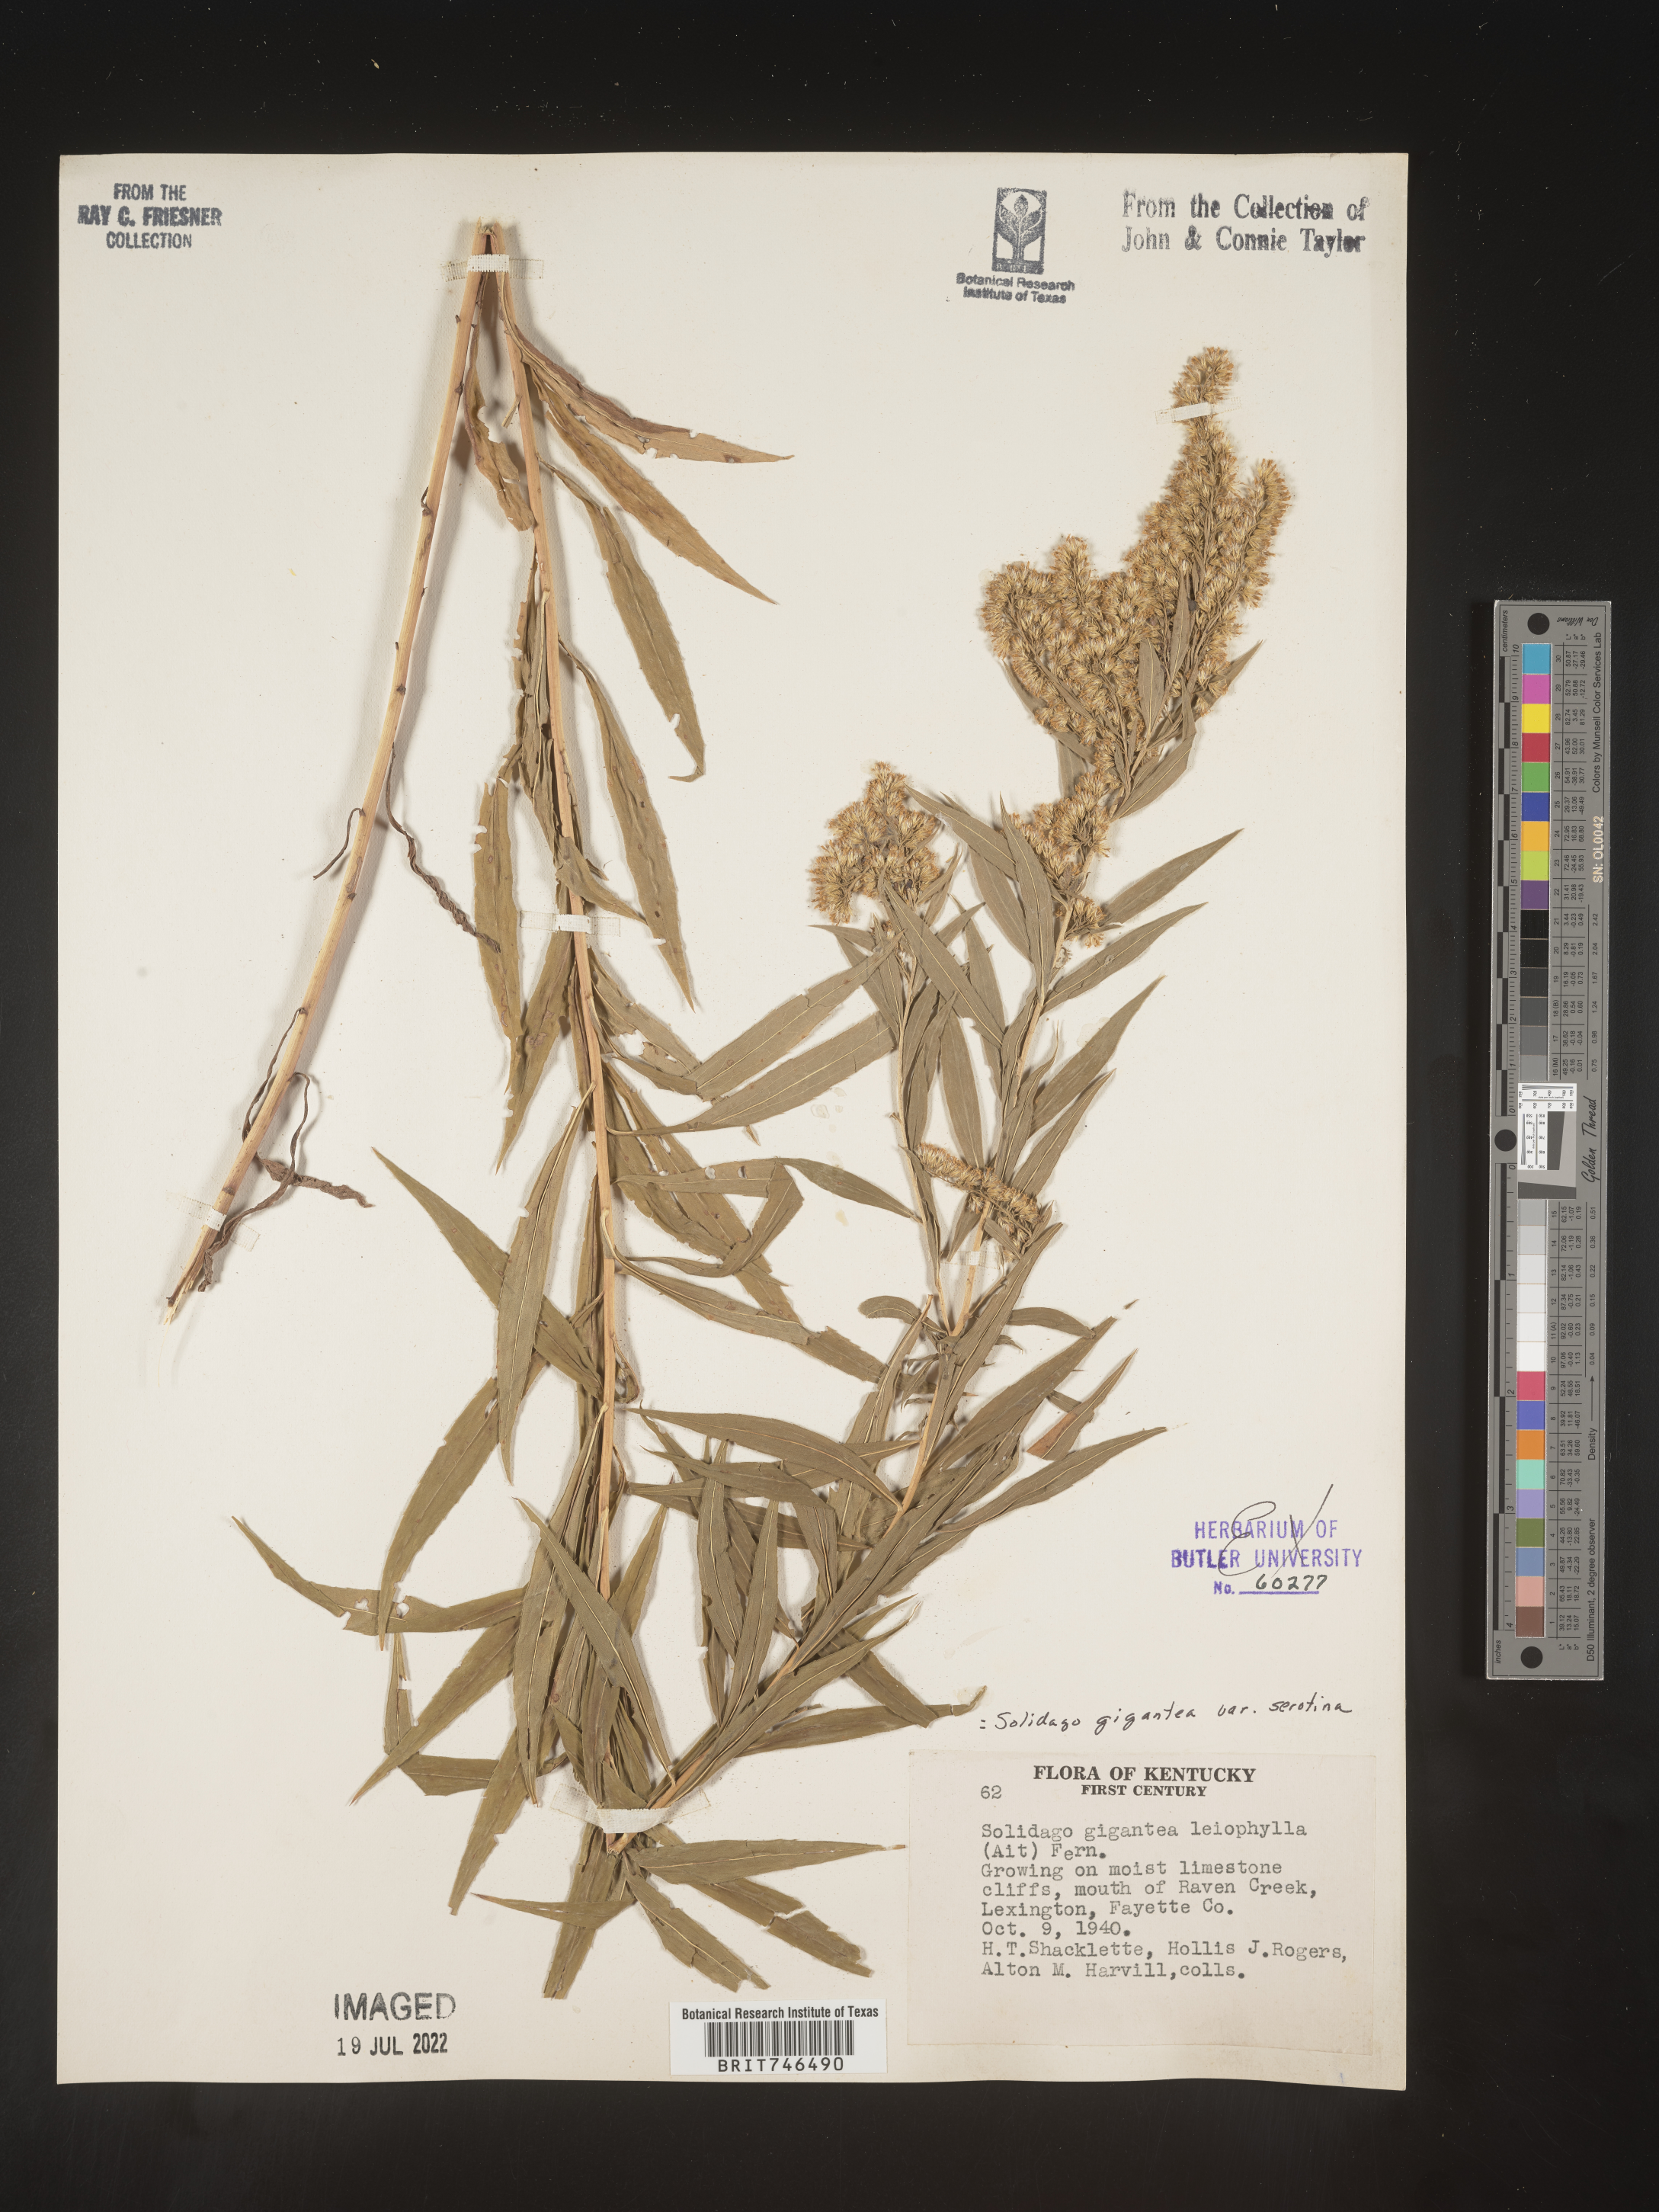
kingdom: Plantae
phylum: Tracheophyta
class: Magnoliopsida
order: Asterales
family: Asteraceae
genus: Solidago
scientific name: Solidago gigantea
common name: Giant goldenrod
